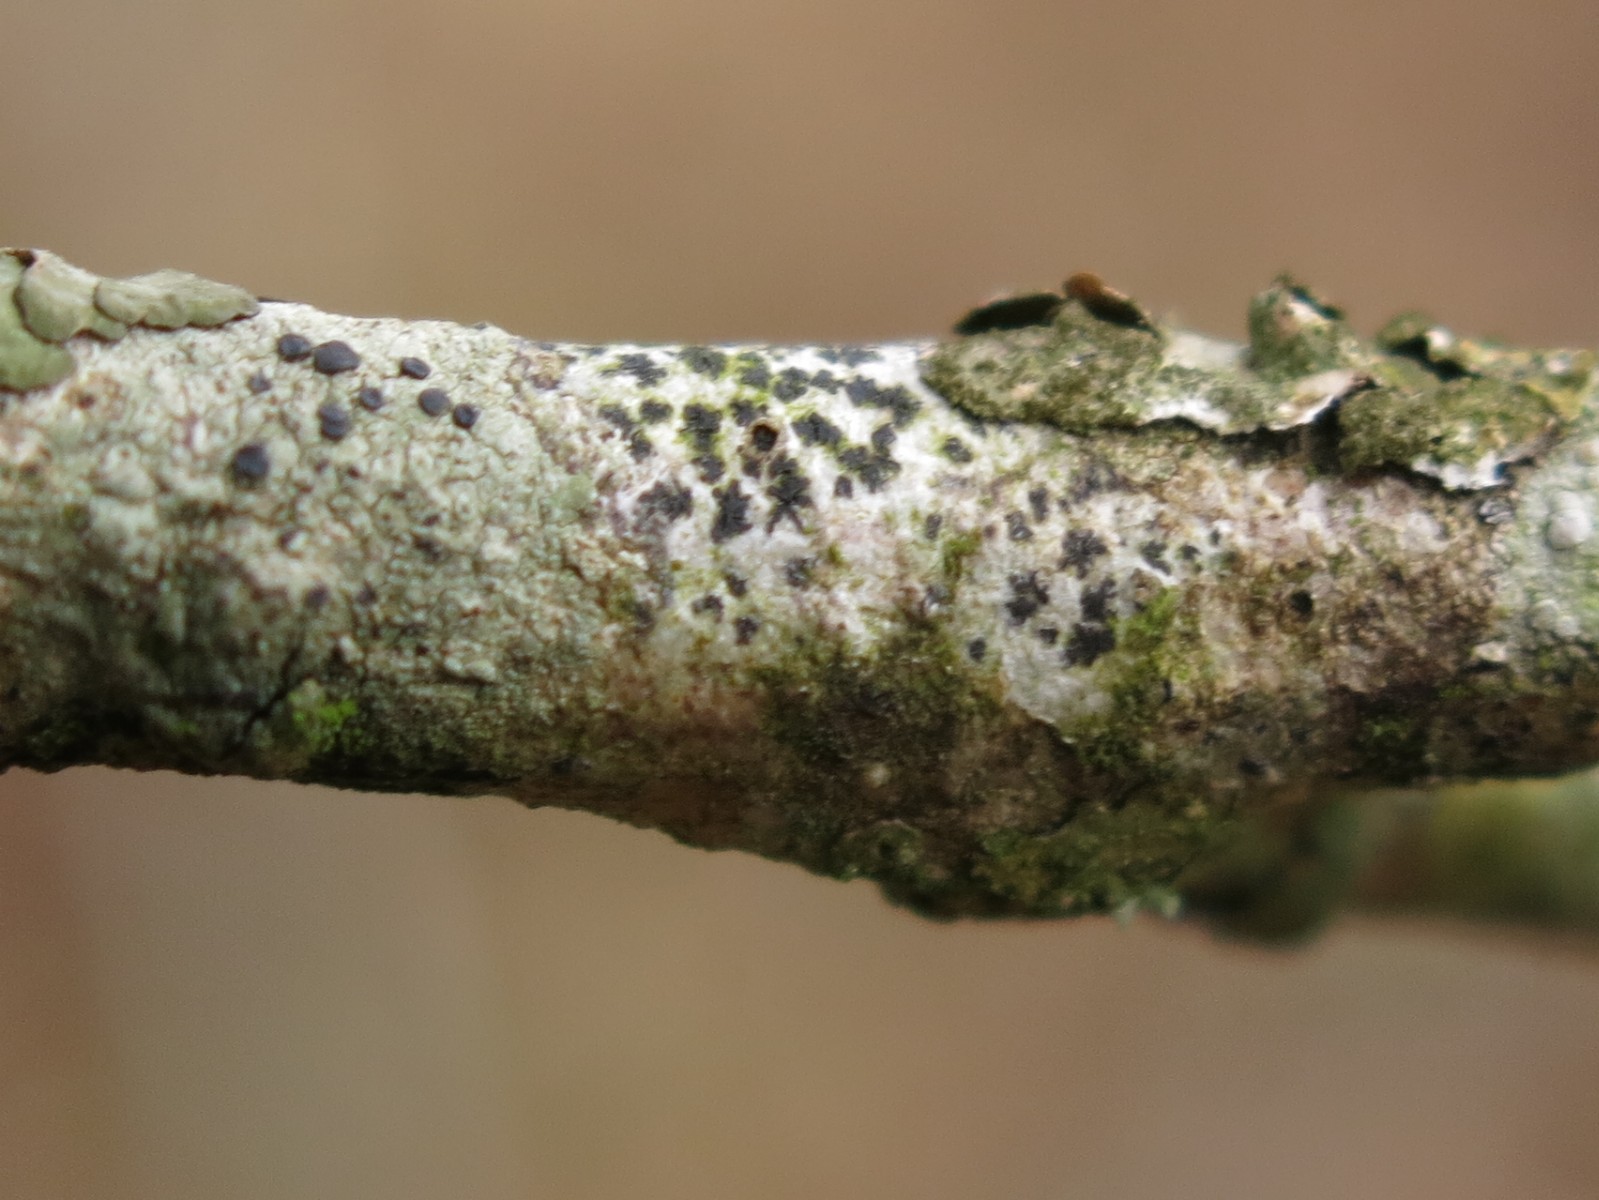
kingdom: Fungi
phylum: Ascomycota
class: Arthoniomycetes
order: Arthoniales
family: Arthoniaceae
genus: Arthonia
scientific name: Arthonia radiata
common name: stjerne-pletlav
